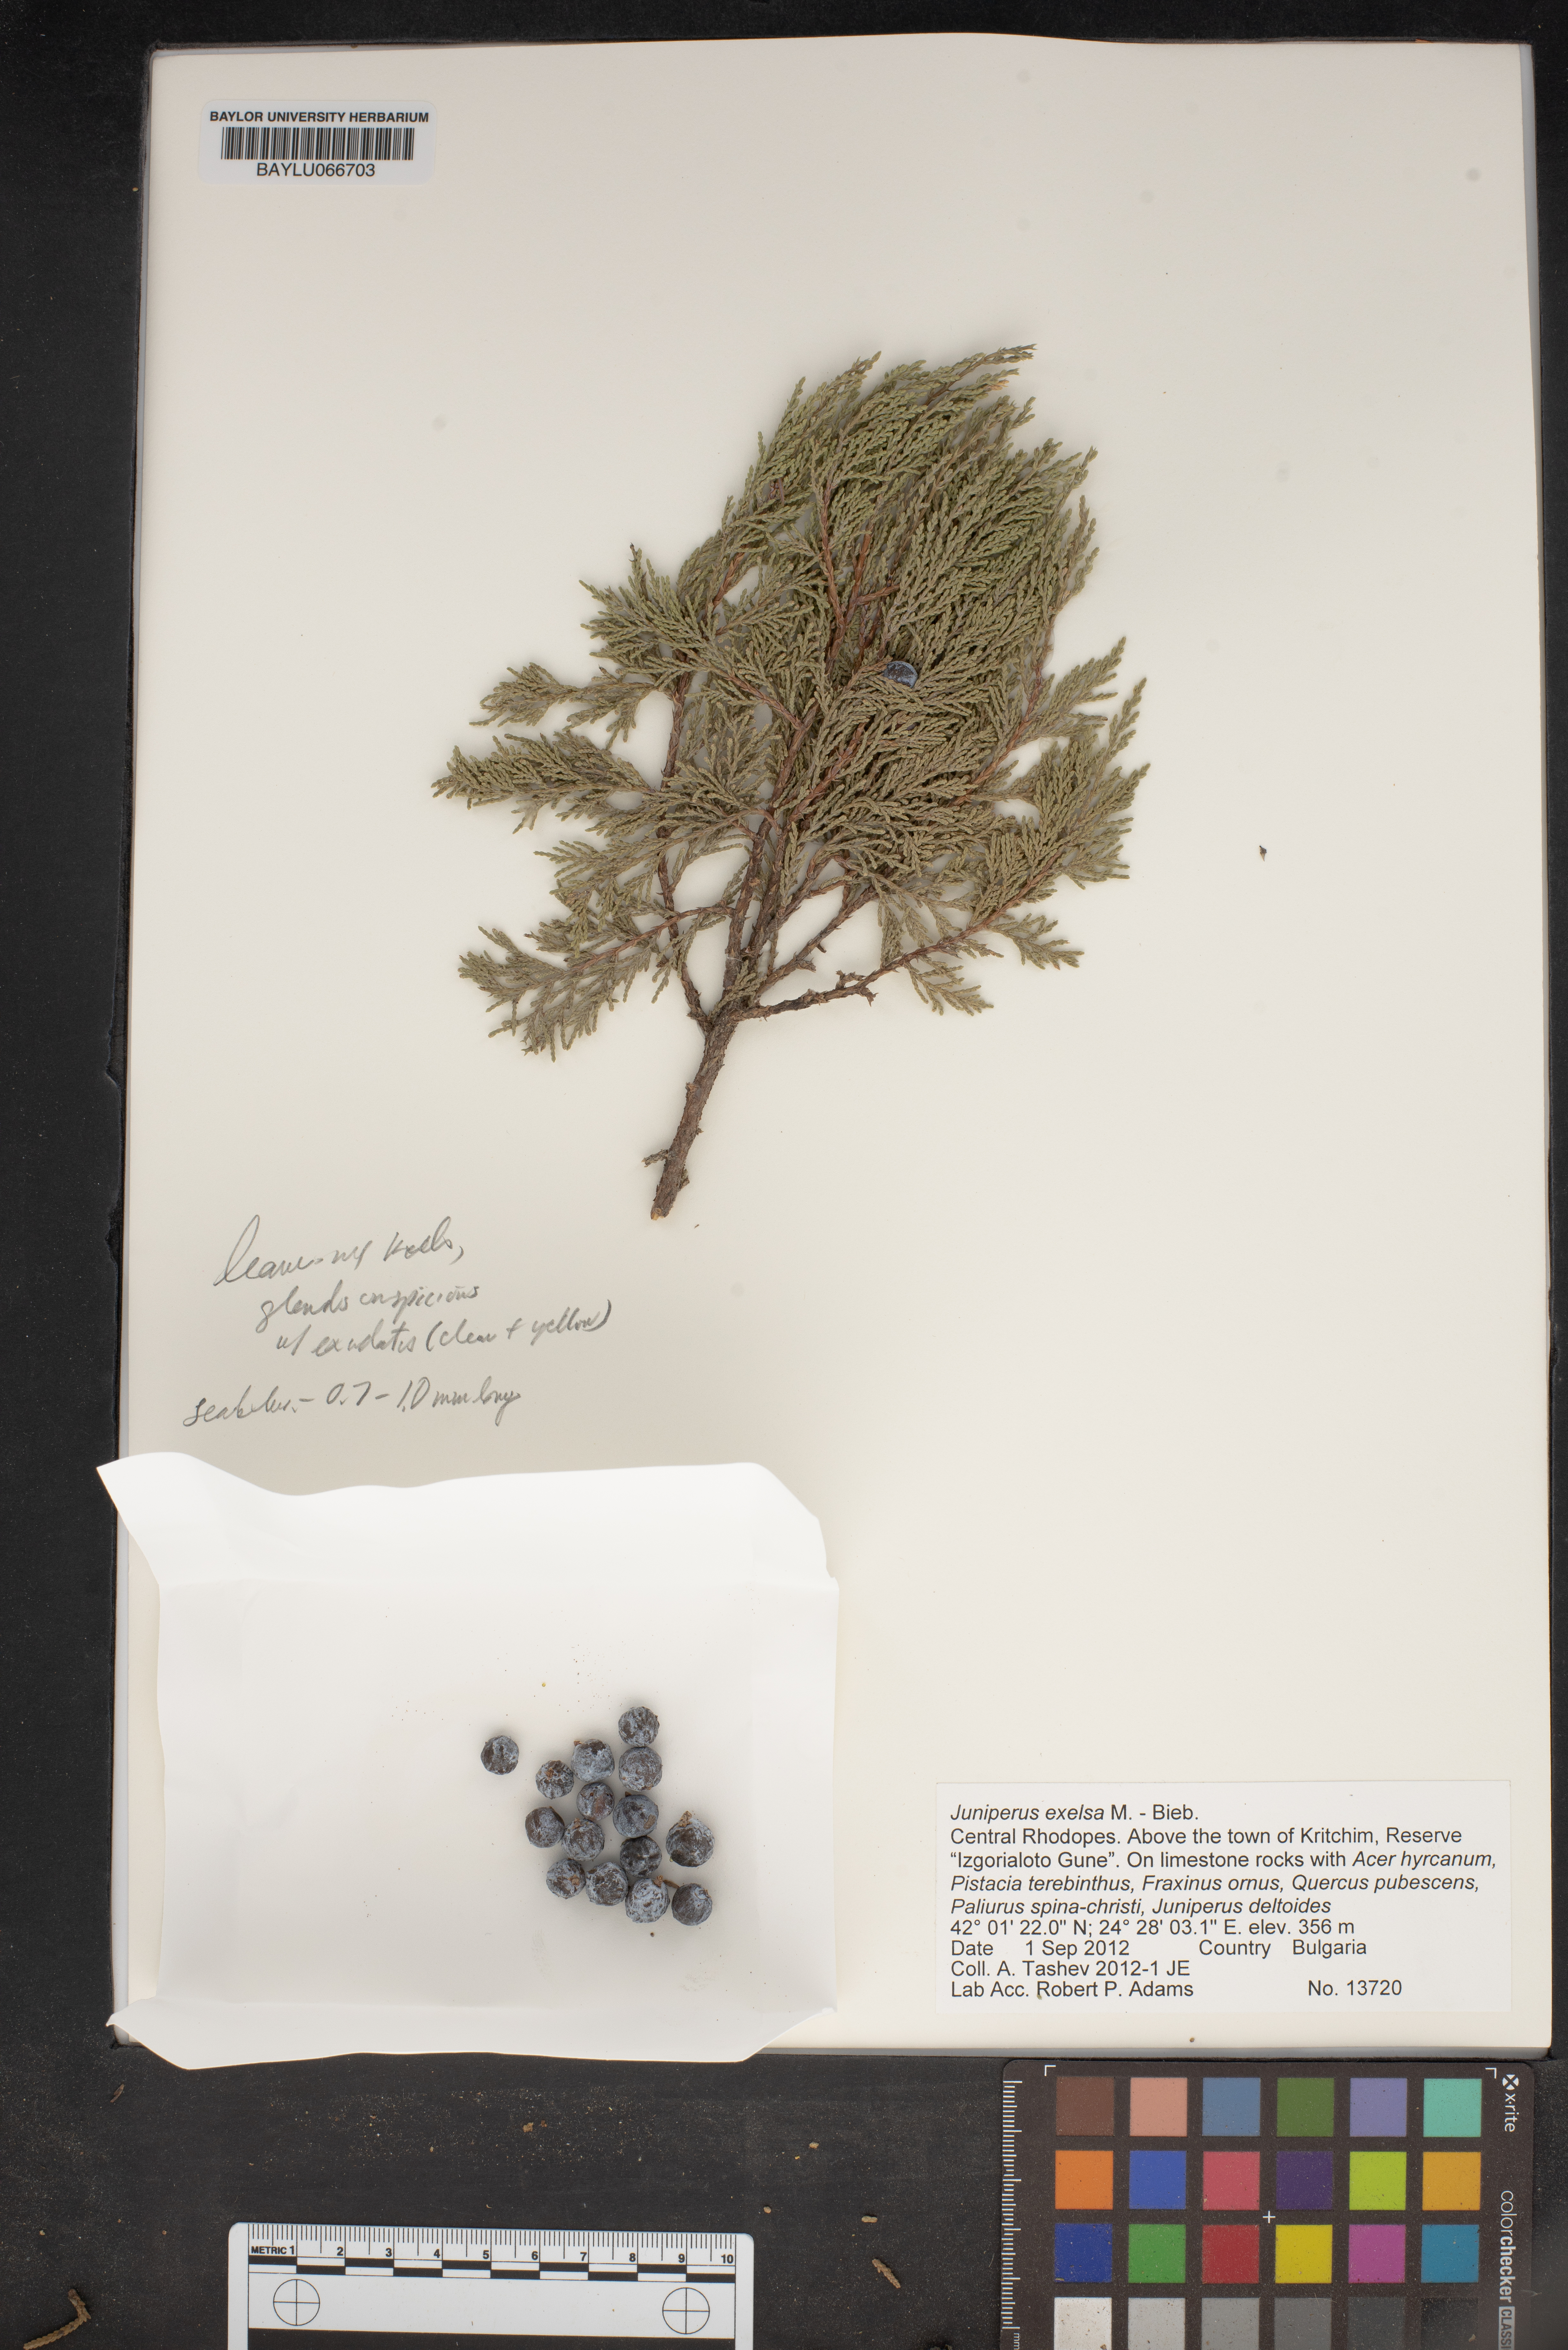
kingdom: Plantae
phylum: Tracheophyta
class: Pinopsida
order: Pinales
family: Cupressaceae
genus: Juniperus
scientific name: Juniperus excelsa
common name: Crimean juniper
